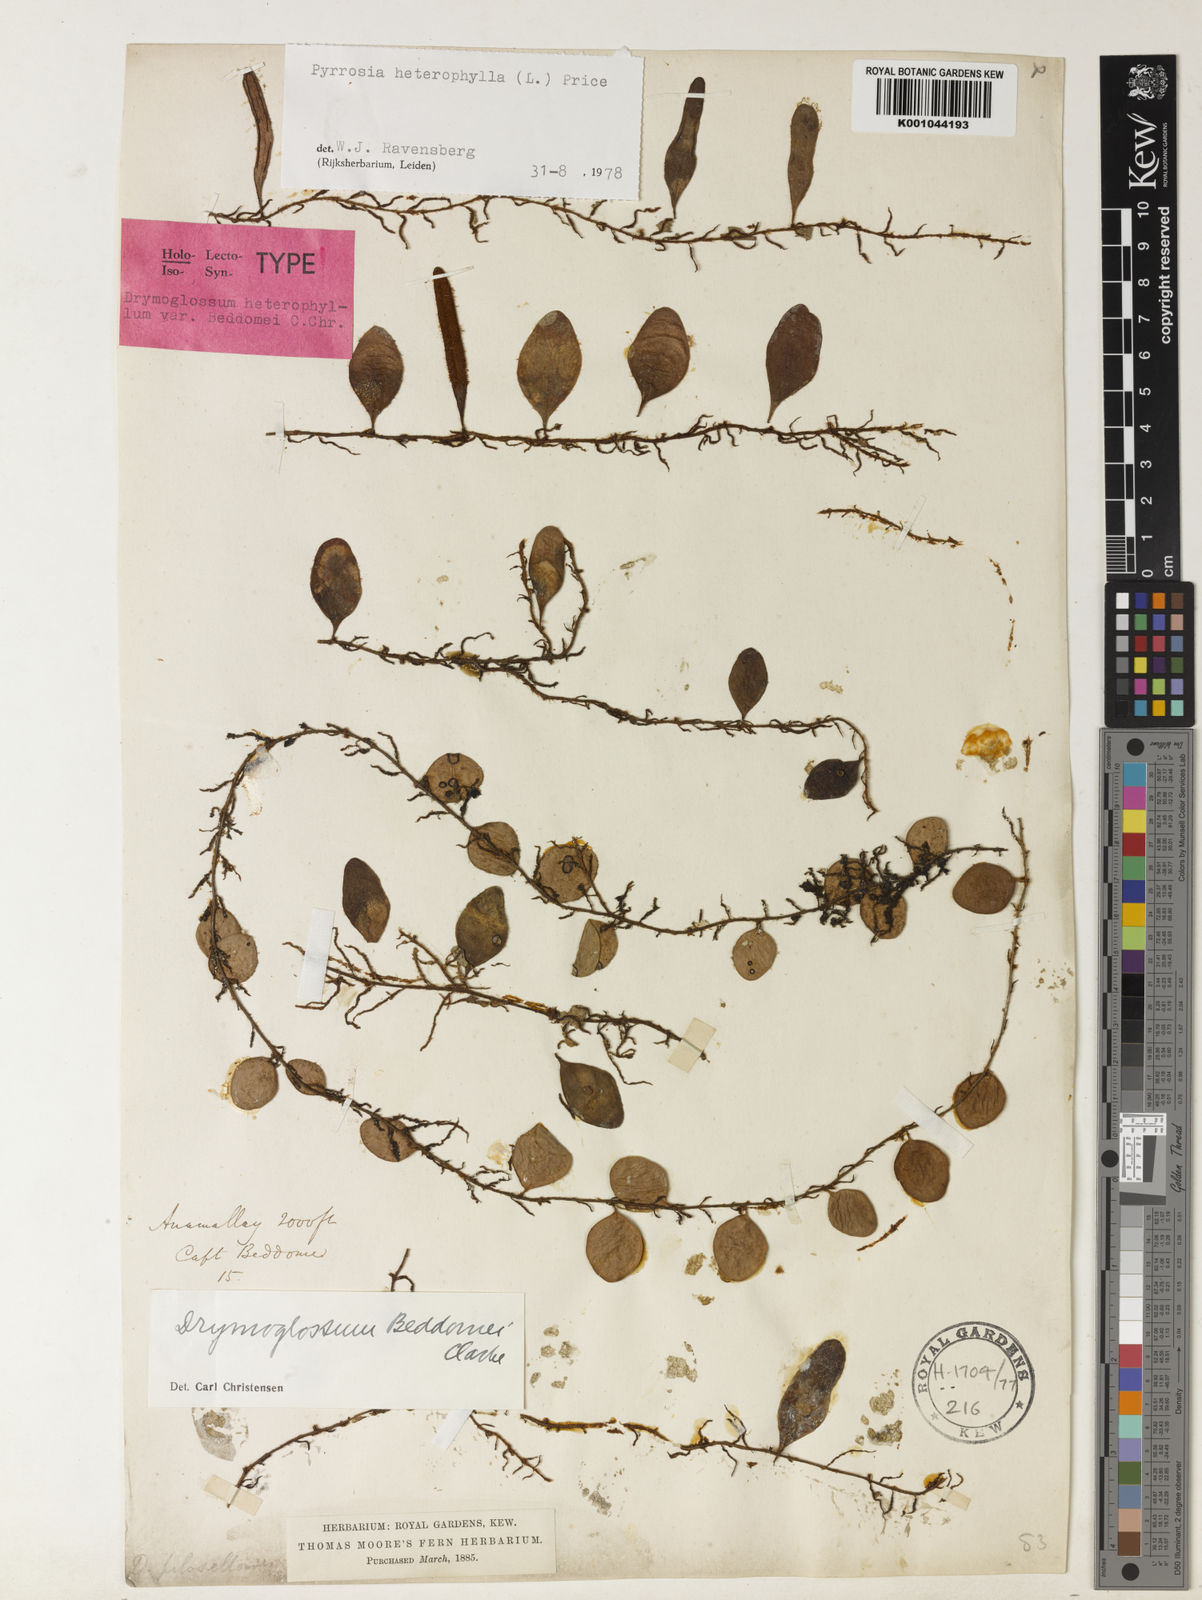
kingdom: Plantae
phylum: Tracheophyta
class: Polypodiopsida
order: Polypodiales
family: Polypodiaceae
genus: Pyrrosia
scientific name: Pyrrosia heterophylla
